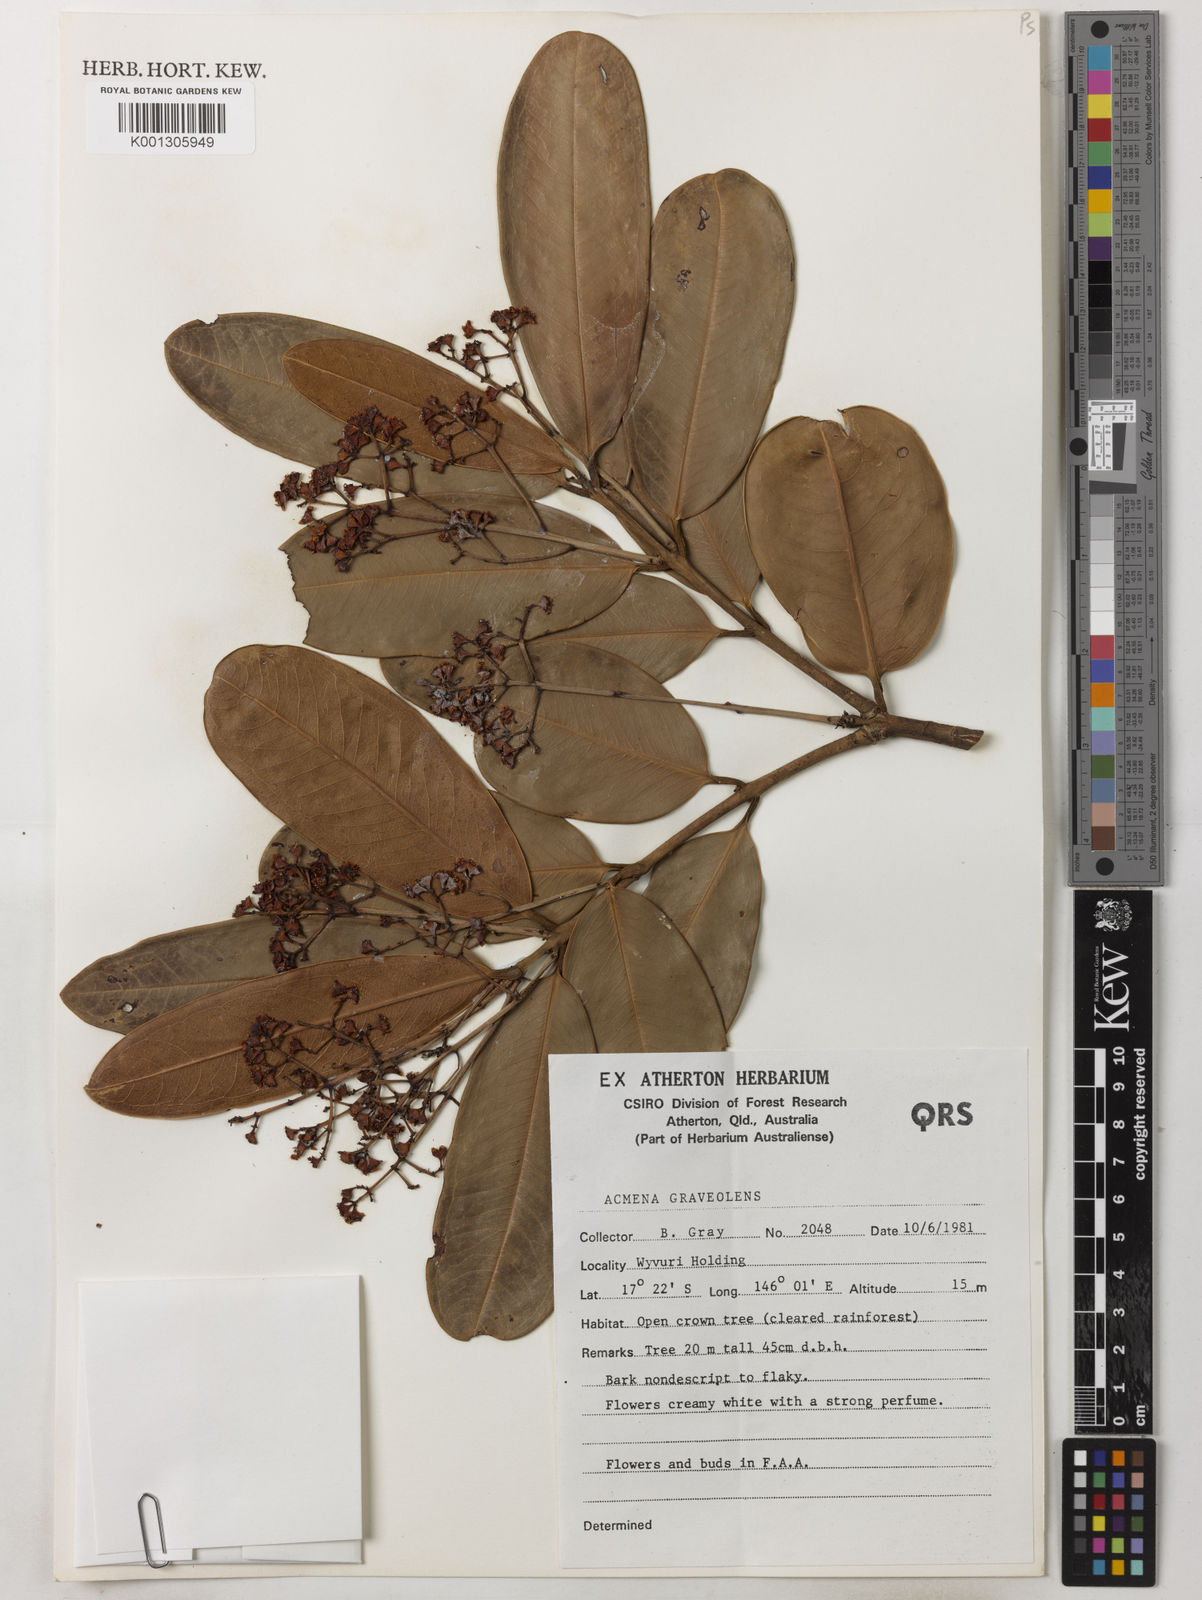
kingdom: Plantae
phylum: Tracheophyta
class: Magnoliopsida
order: Myrtales
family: Myrtaceae
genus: Syzygium
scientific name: Syzygium graveolens
